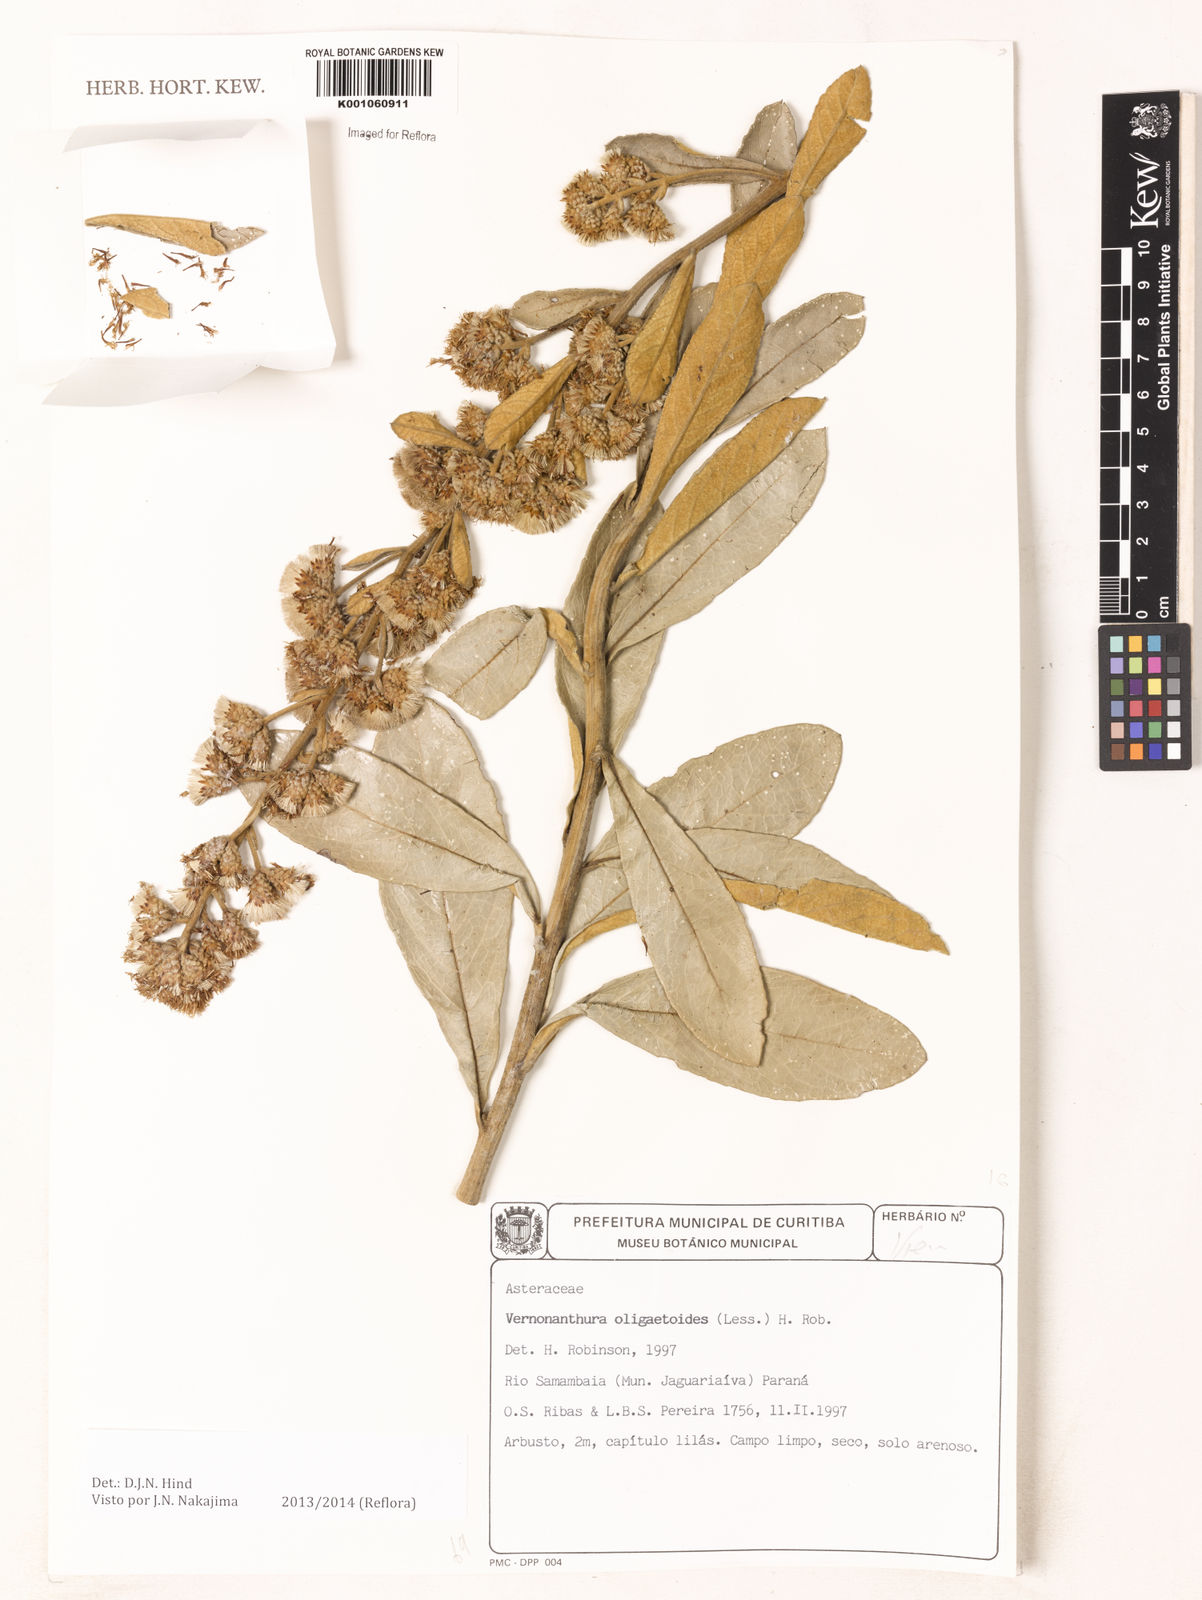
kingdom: Plantae
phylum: Tracheophyta
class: Magnoliopsida
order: Asterales
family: Asteraceae
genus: Vernonanthura
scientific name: Vernonanthura oligactoides
